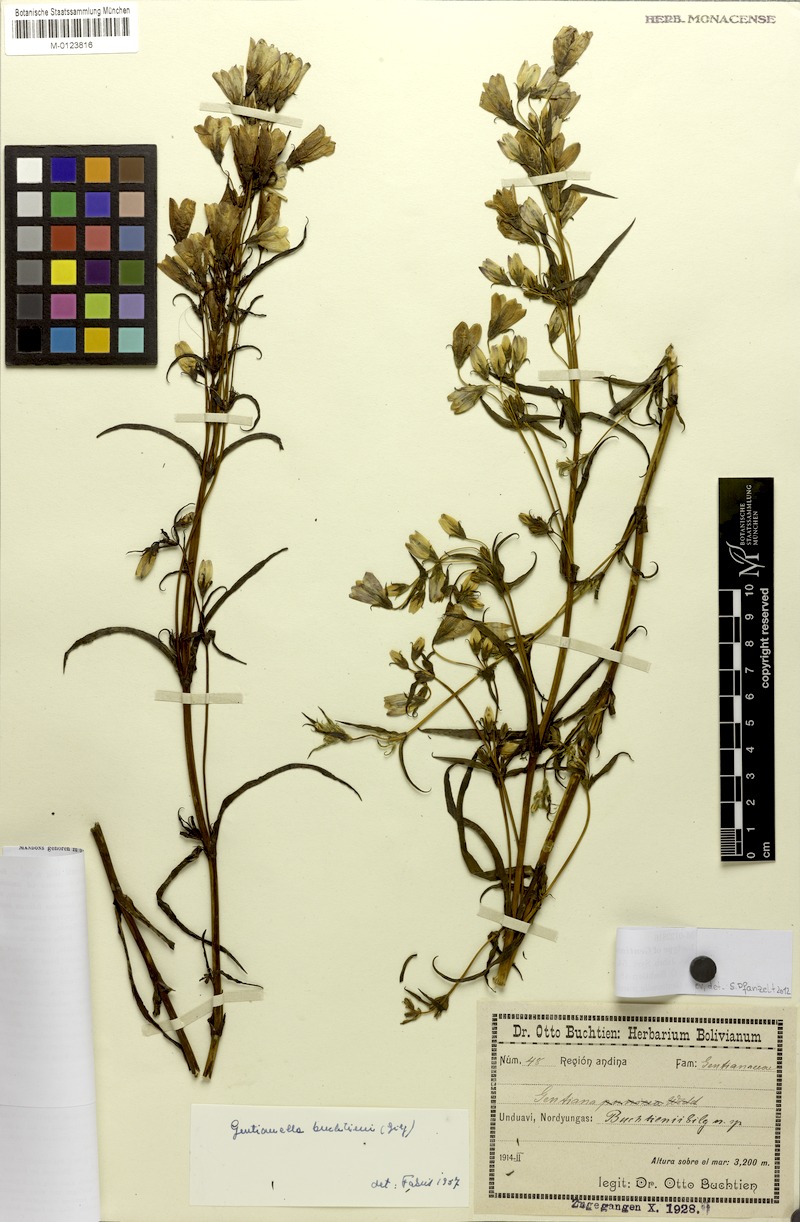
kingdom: Plantae
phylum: Tracheophyta
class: Magnoliopsida
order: Gentianales
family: Gentianaceae
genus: Gentianella
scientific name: Gentianella punicea
